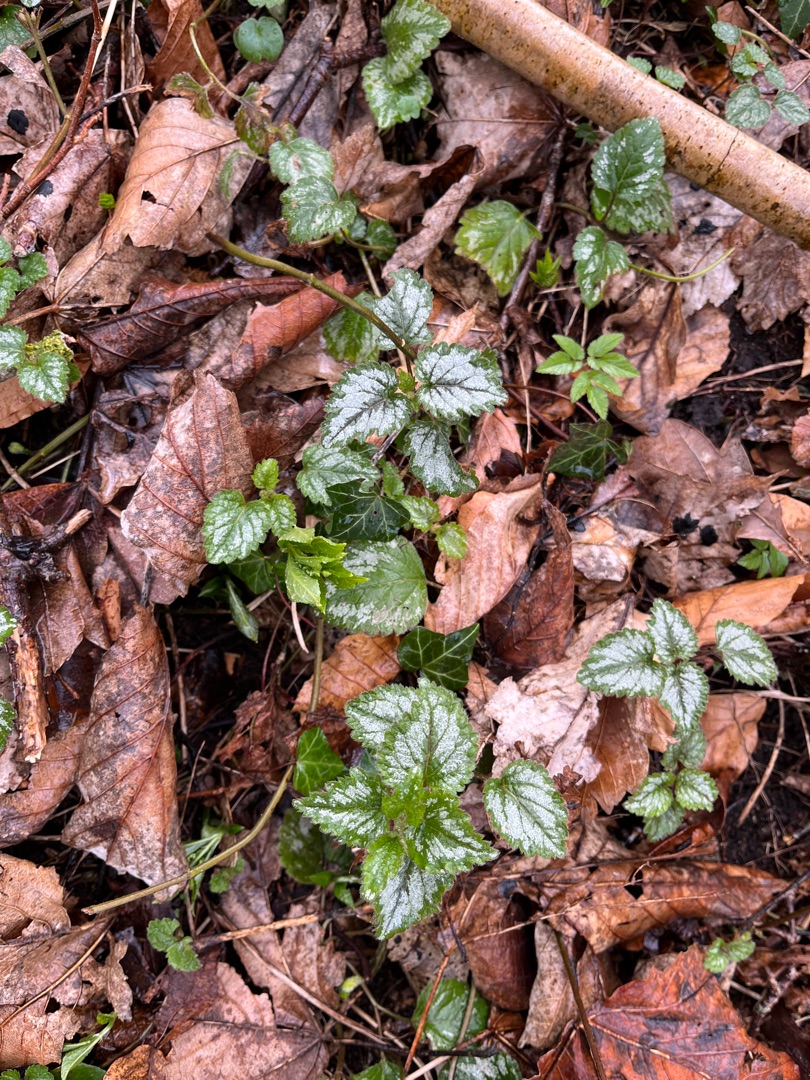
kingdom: Plantae
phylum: Tracheophyta
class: Magnoliopsida
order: Lamiales
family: Lamiaceae
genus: Lamium
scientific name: Lamium galeobdolon
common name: Have-guldnælde
